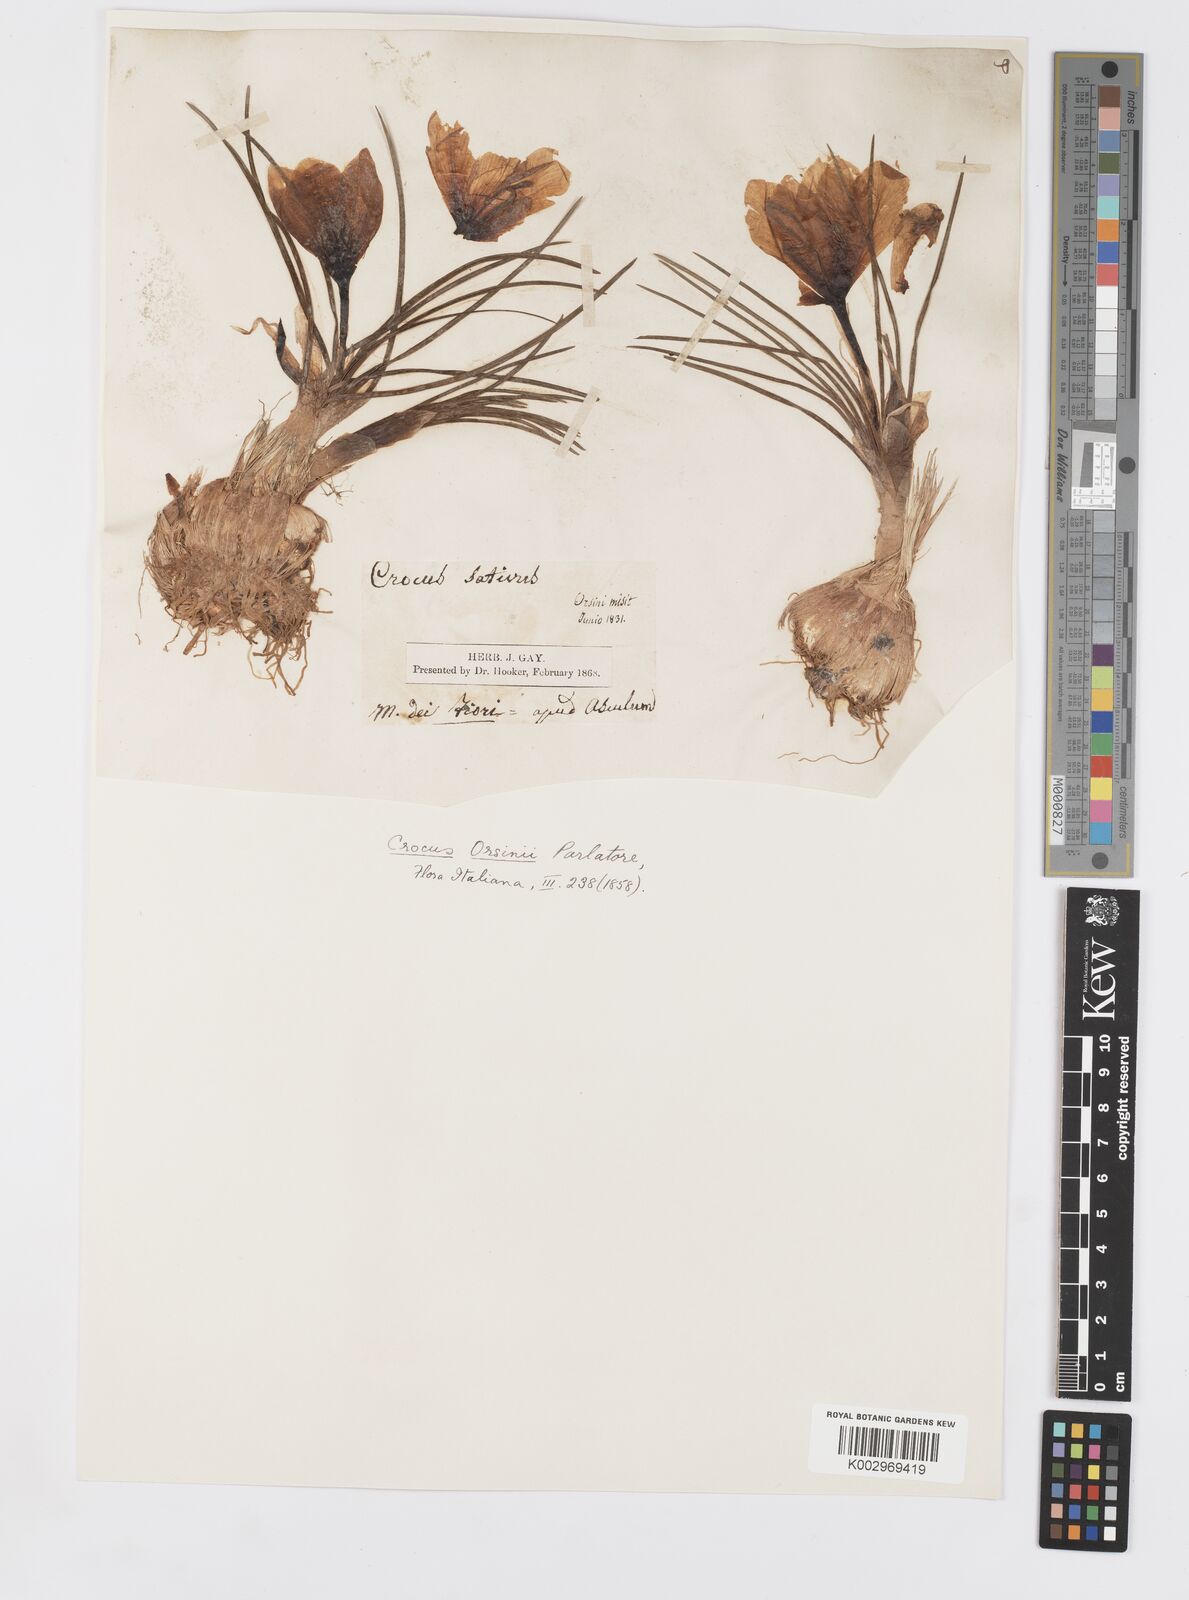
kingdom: Plantae
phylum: Tracheophyta
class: Liliopsida
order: Asparagales
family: Iridaceae
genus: Crocus
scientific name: Crocus sativus
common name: Saffron crocus
